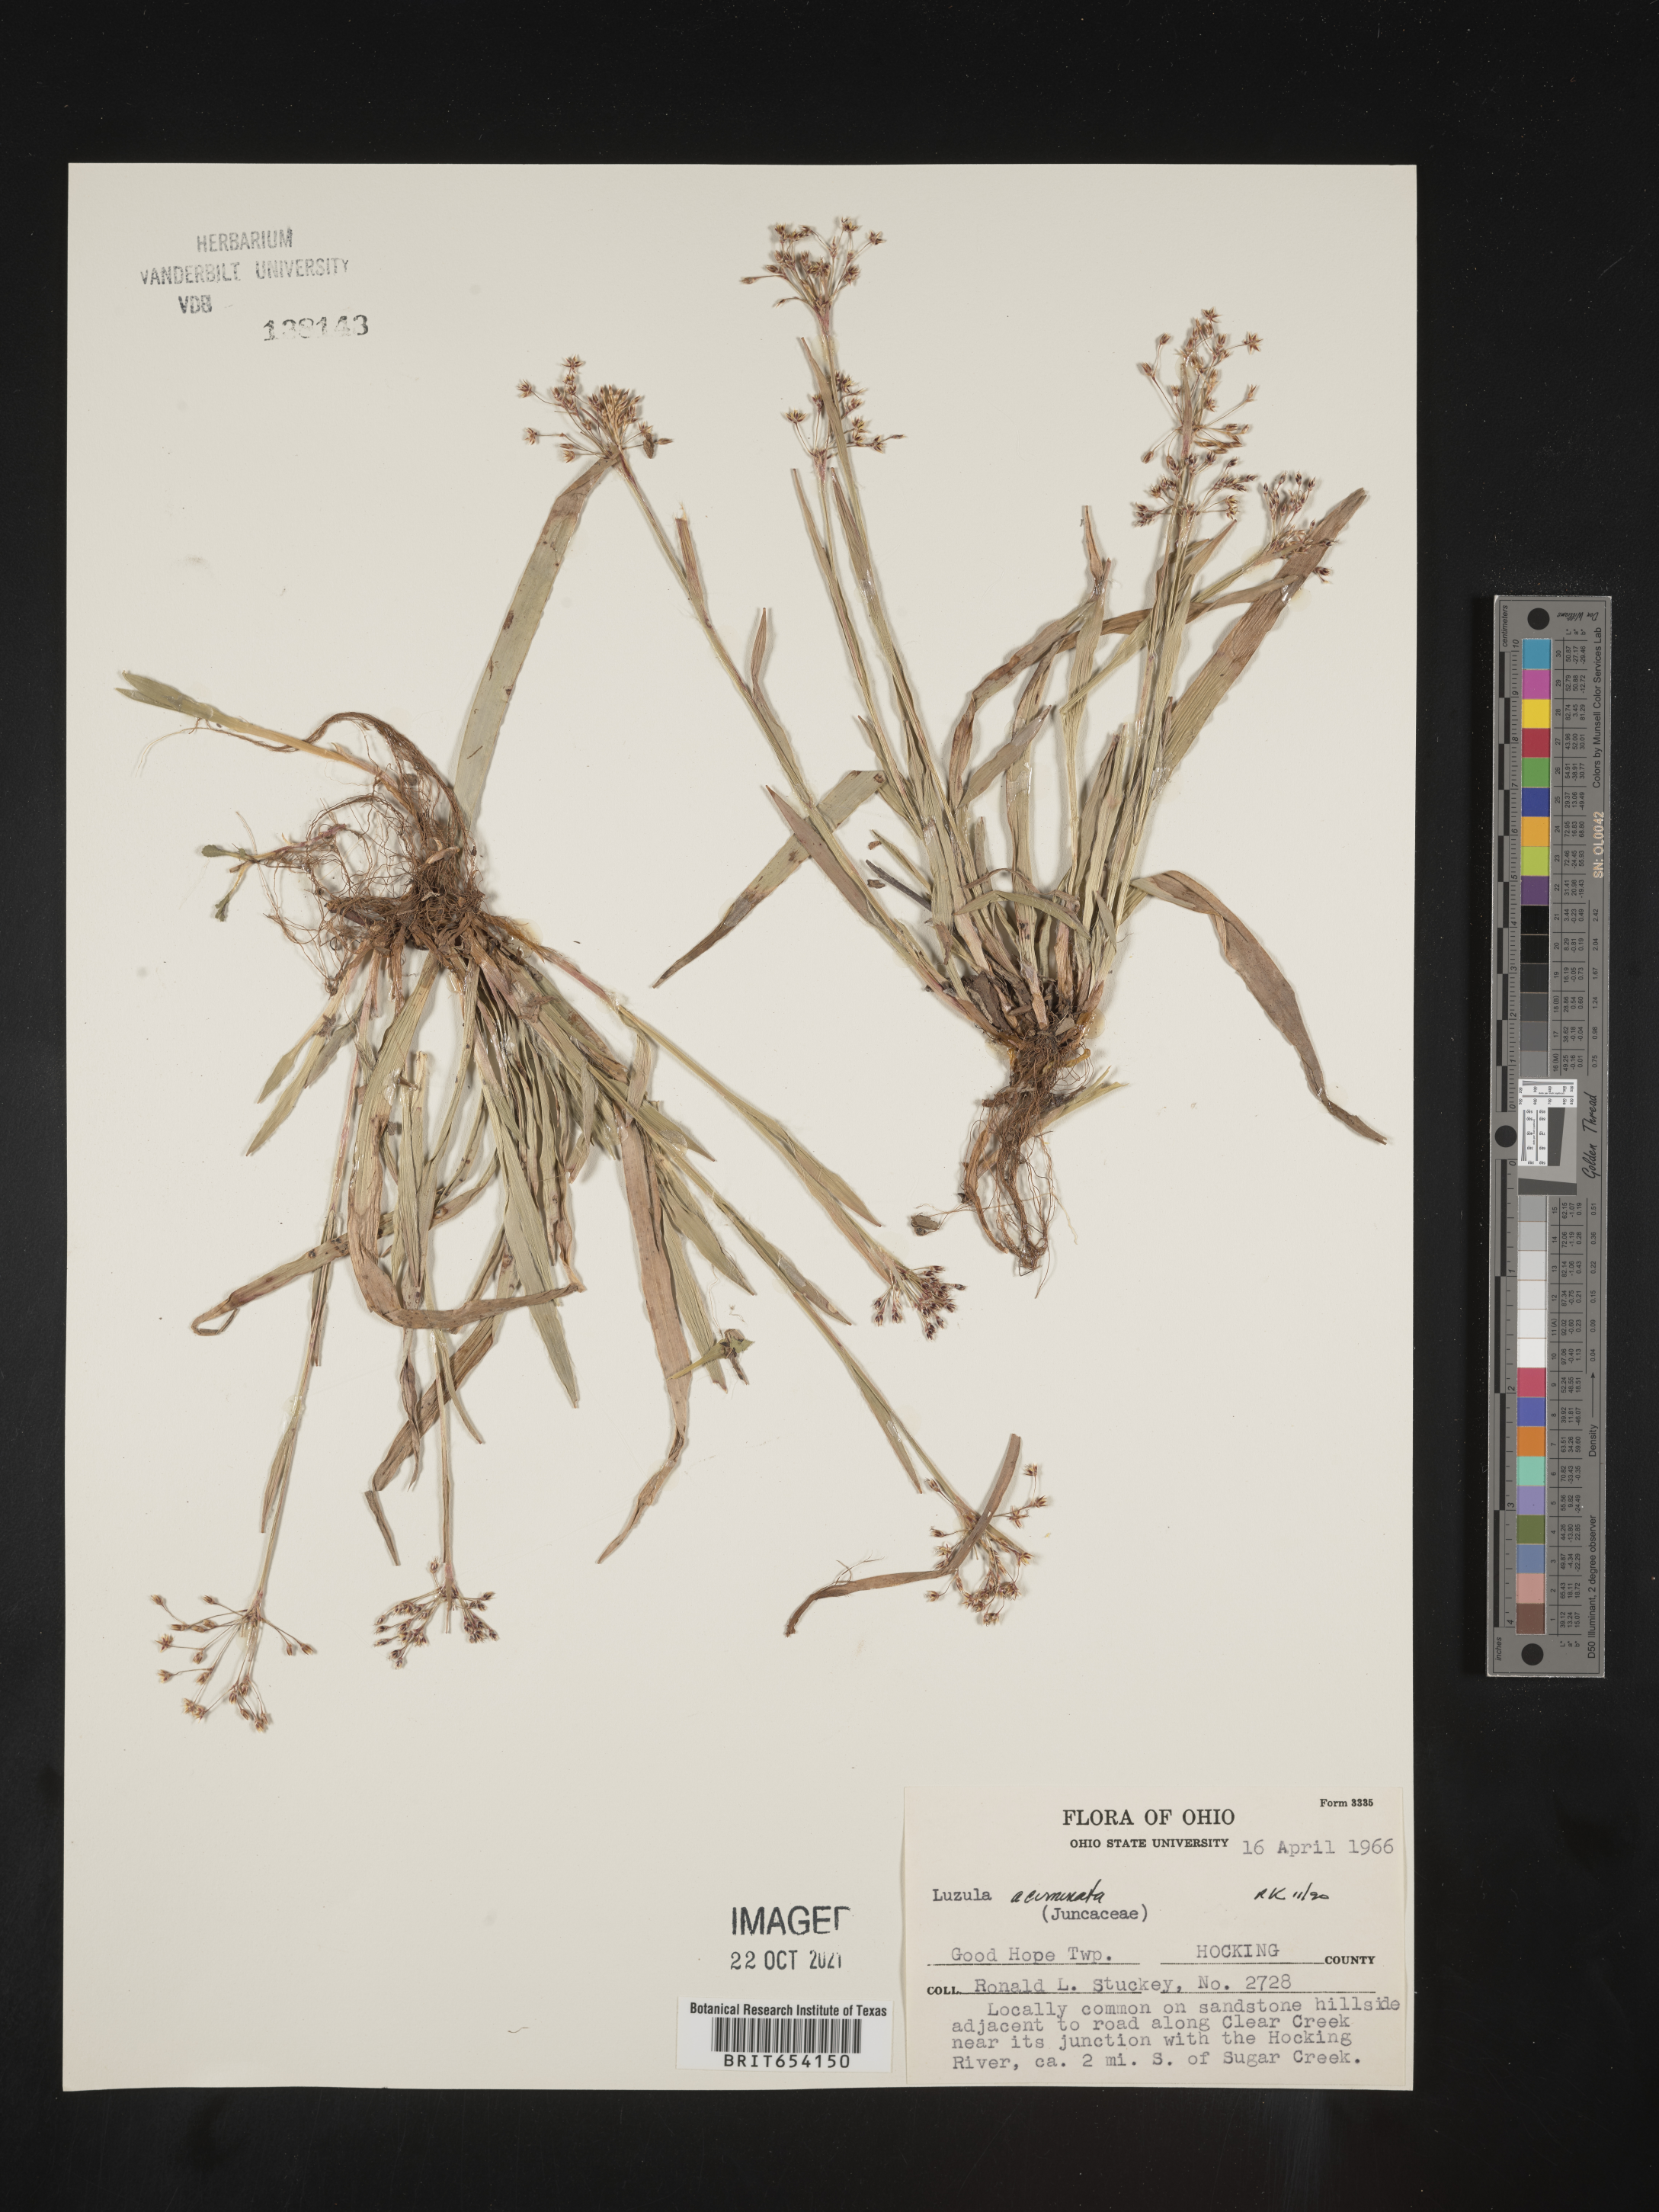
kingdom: Plantae
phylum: Tracheophyta
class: Liliopsida
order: Poales
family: Juncaceae
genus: Luzula
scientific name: Luzula acuminata
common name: Hairy woodrush
